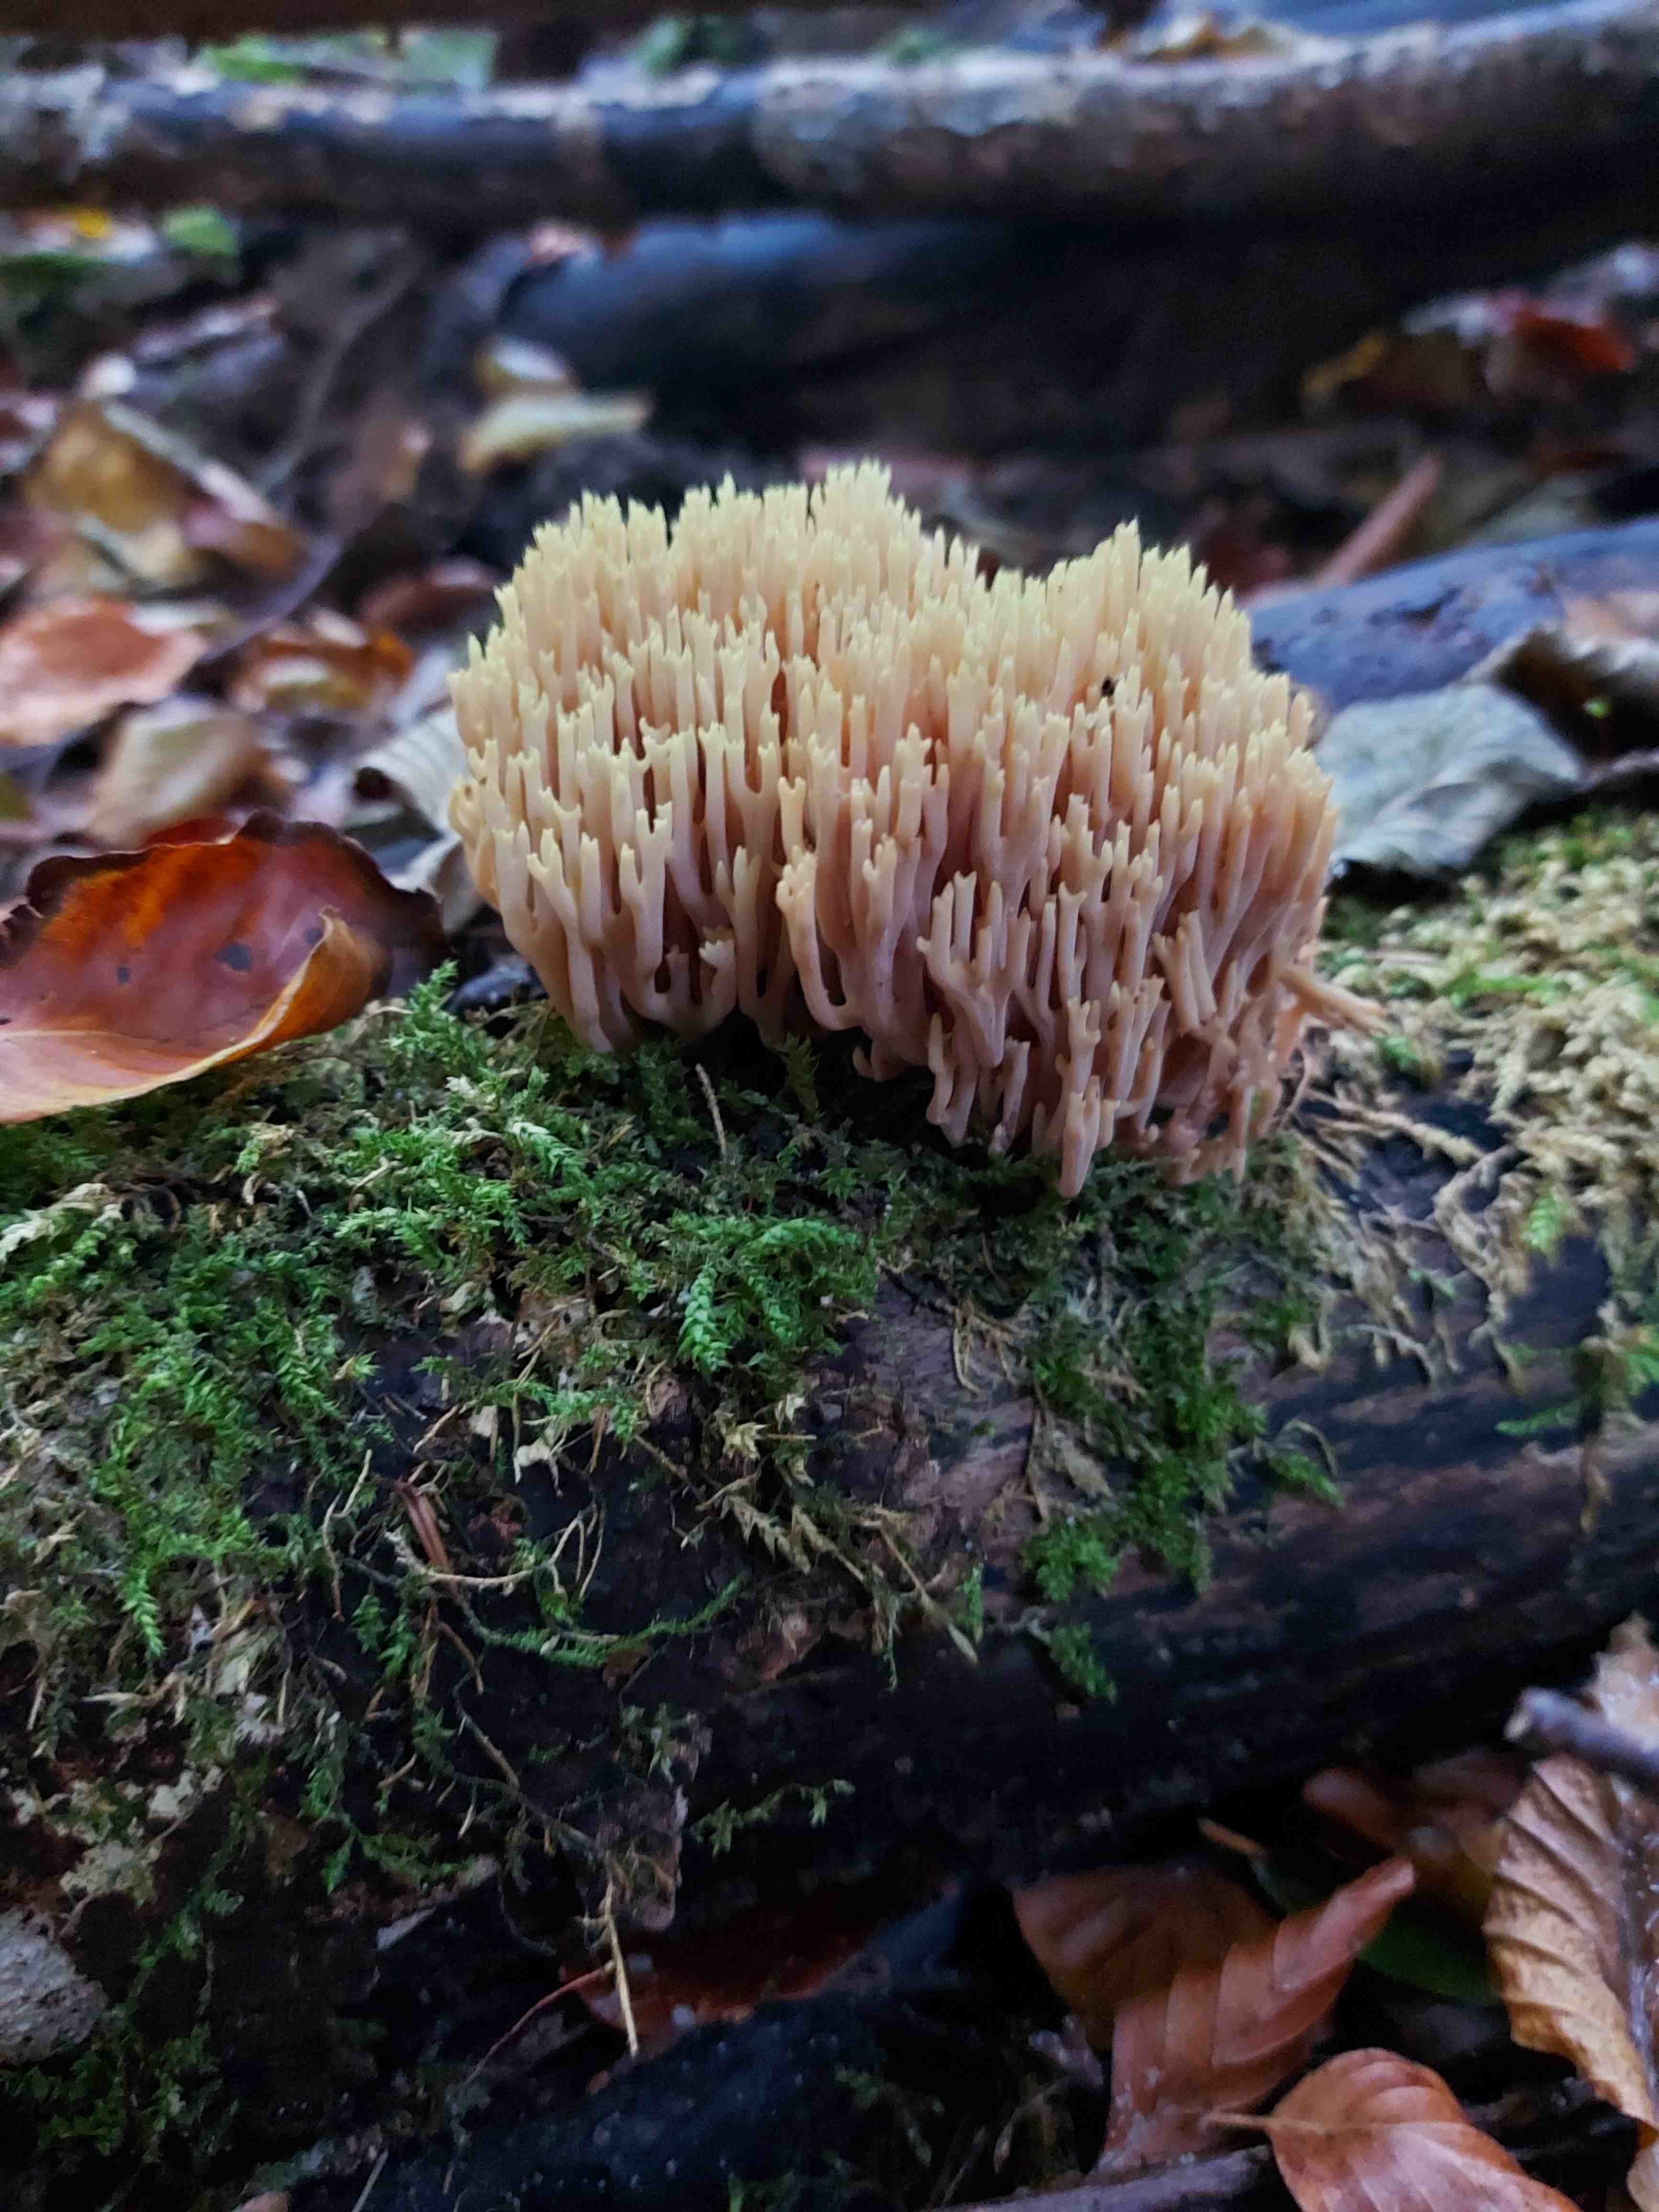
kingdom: Fungi
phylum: Basidiomycota
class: Agaricomycetes
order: Gomphales
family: Gomphaceae
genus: Ramaria
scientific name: Ramaria stricta
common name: rank koralsvamp
